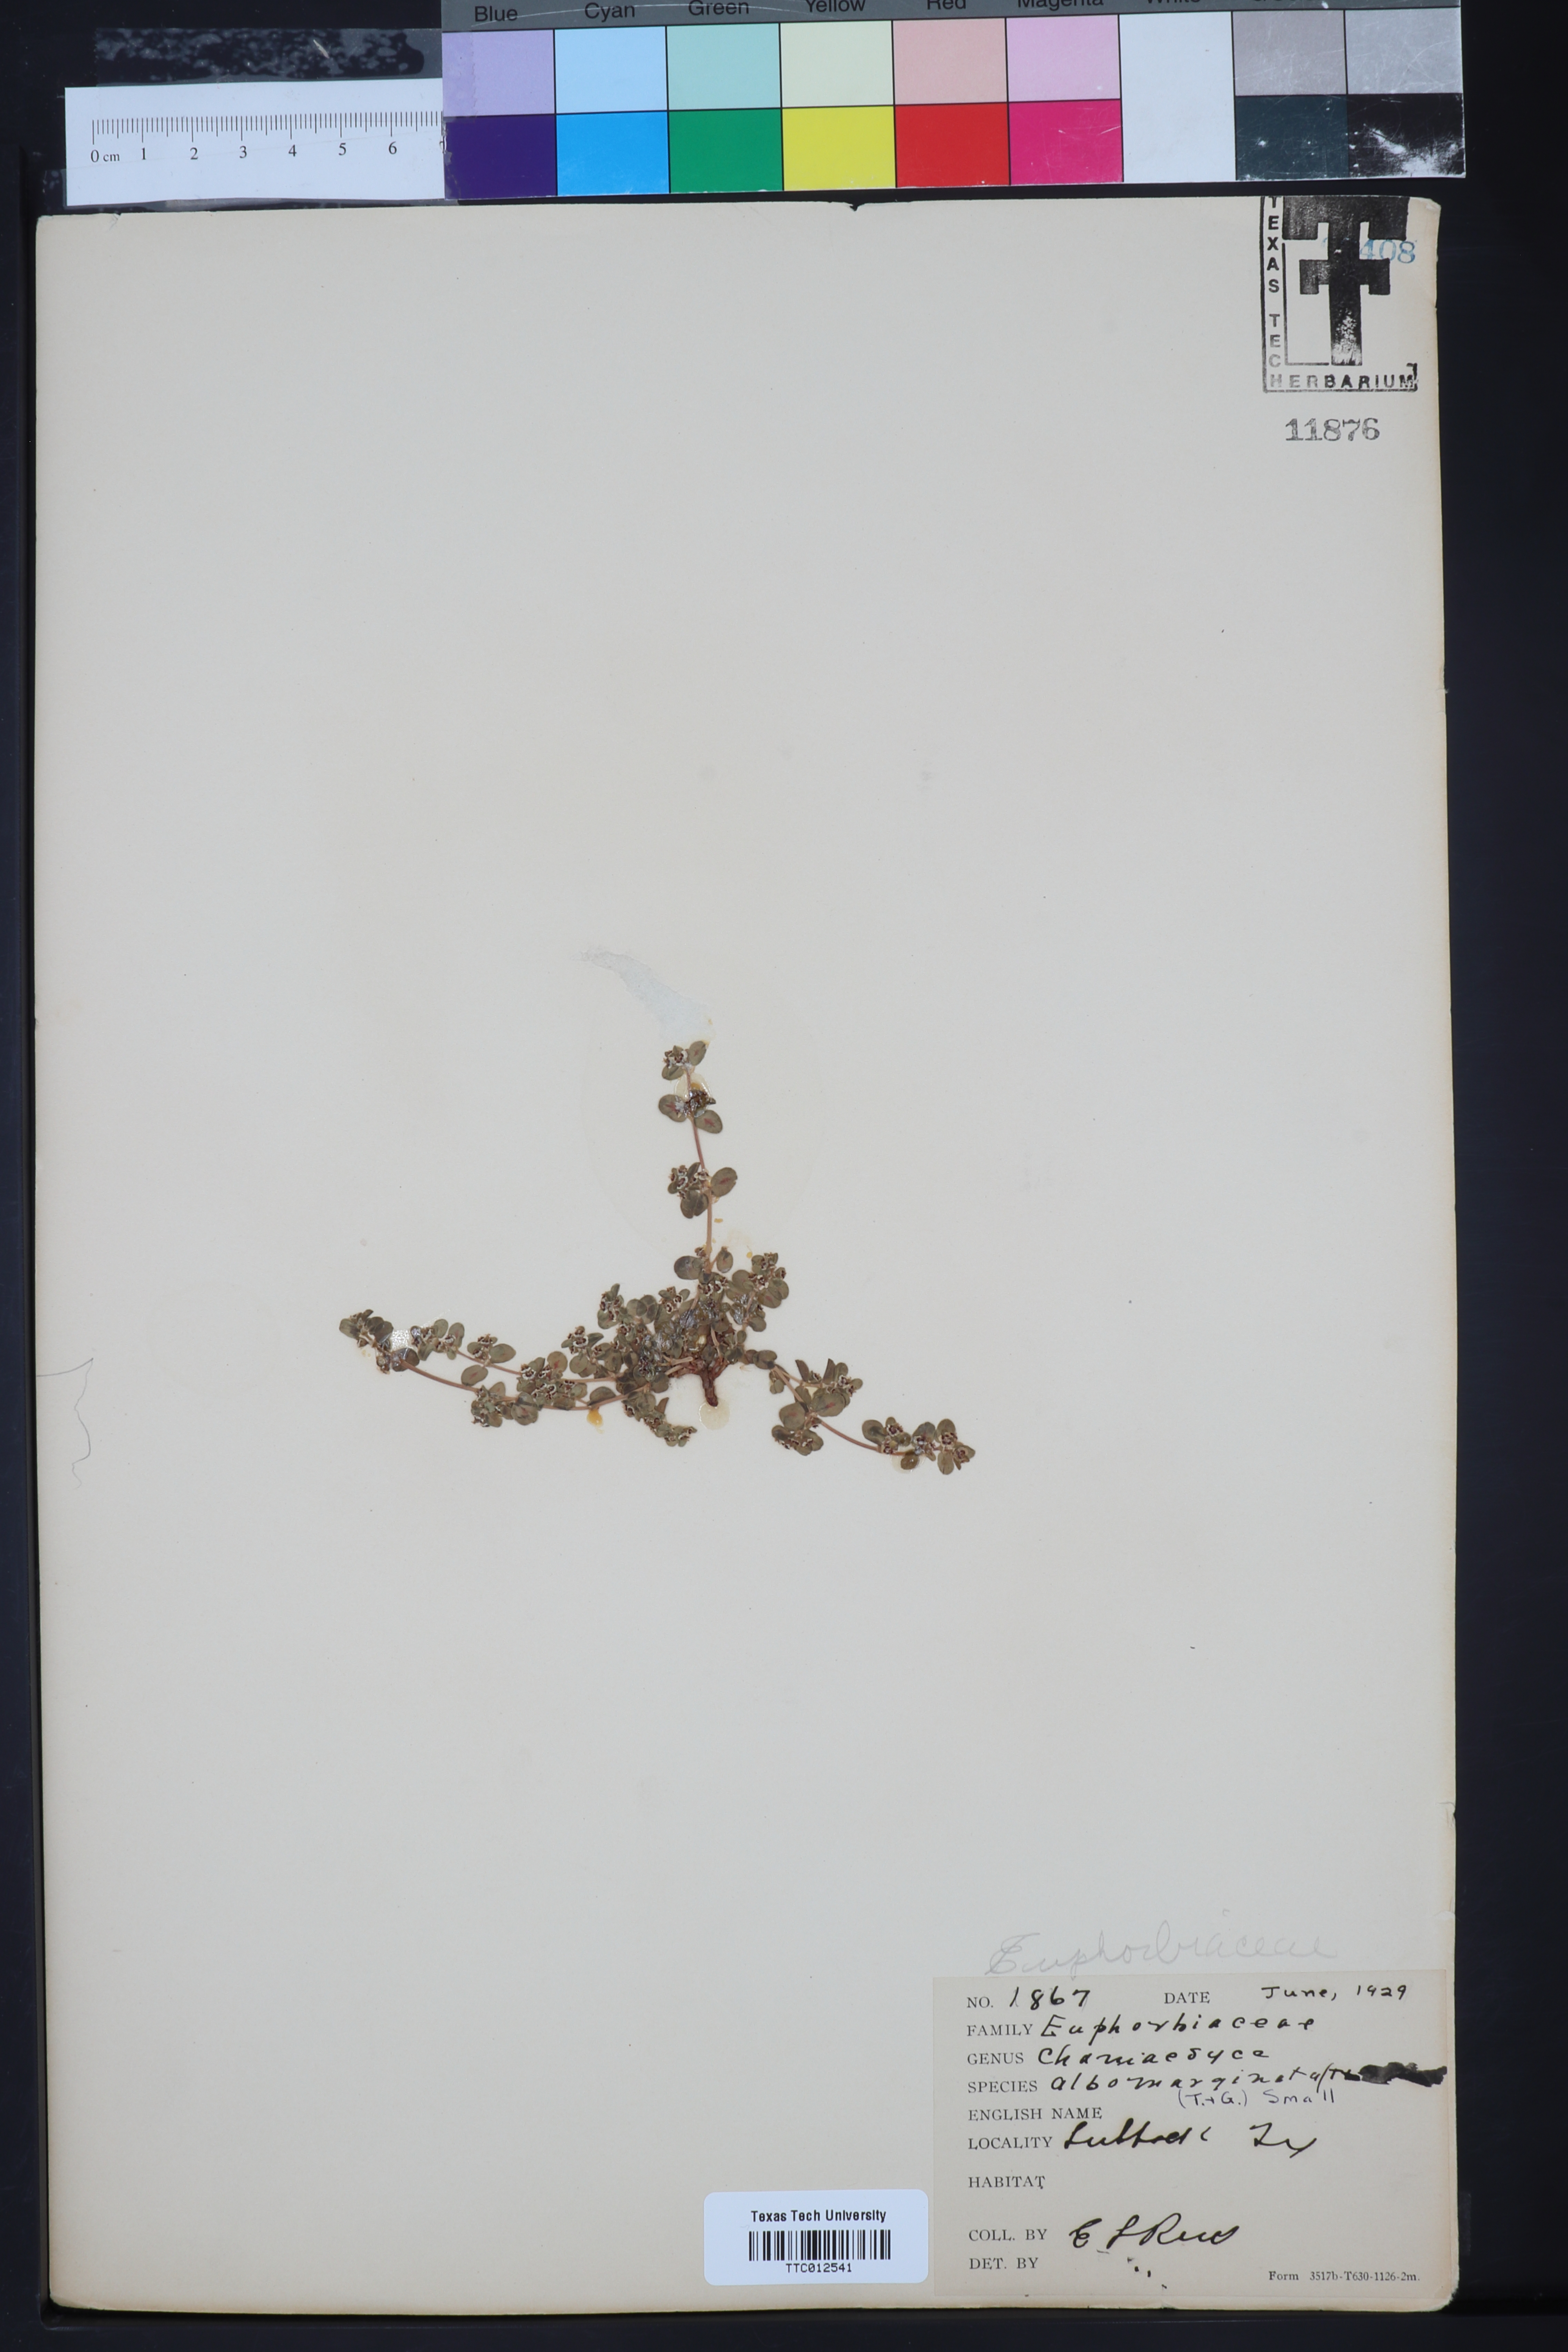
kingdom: Plantae
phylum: Tracheophyta
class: Magnoliopsida
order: Malpighiales
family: Euphorbiaceae
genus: Euphorbia
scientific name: Euphorbia albomarginata
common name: Whitemargin sandmat
